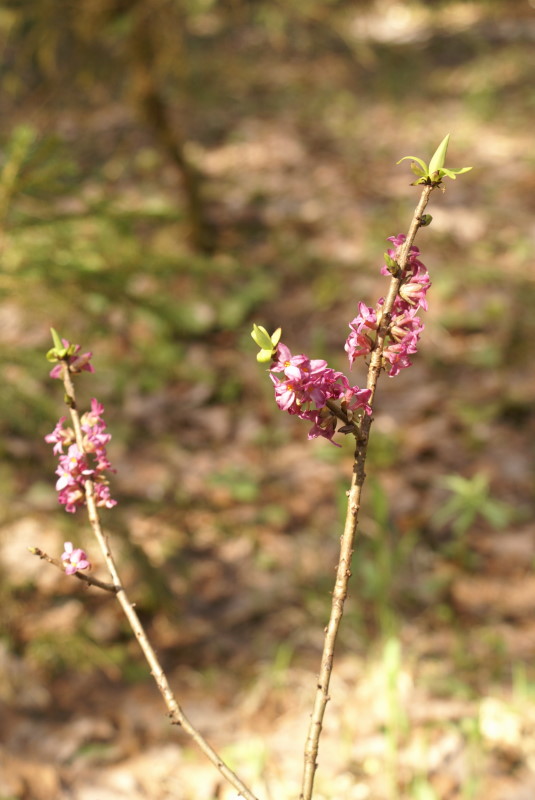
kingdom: Plantae
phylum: Tracheophyta
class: Magnoliopsida
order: Malvales
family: Thymelaeaceae
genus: Daphne
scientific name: Daphne mezereum
